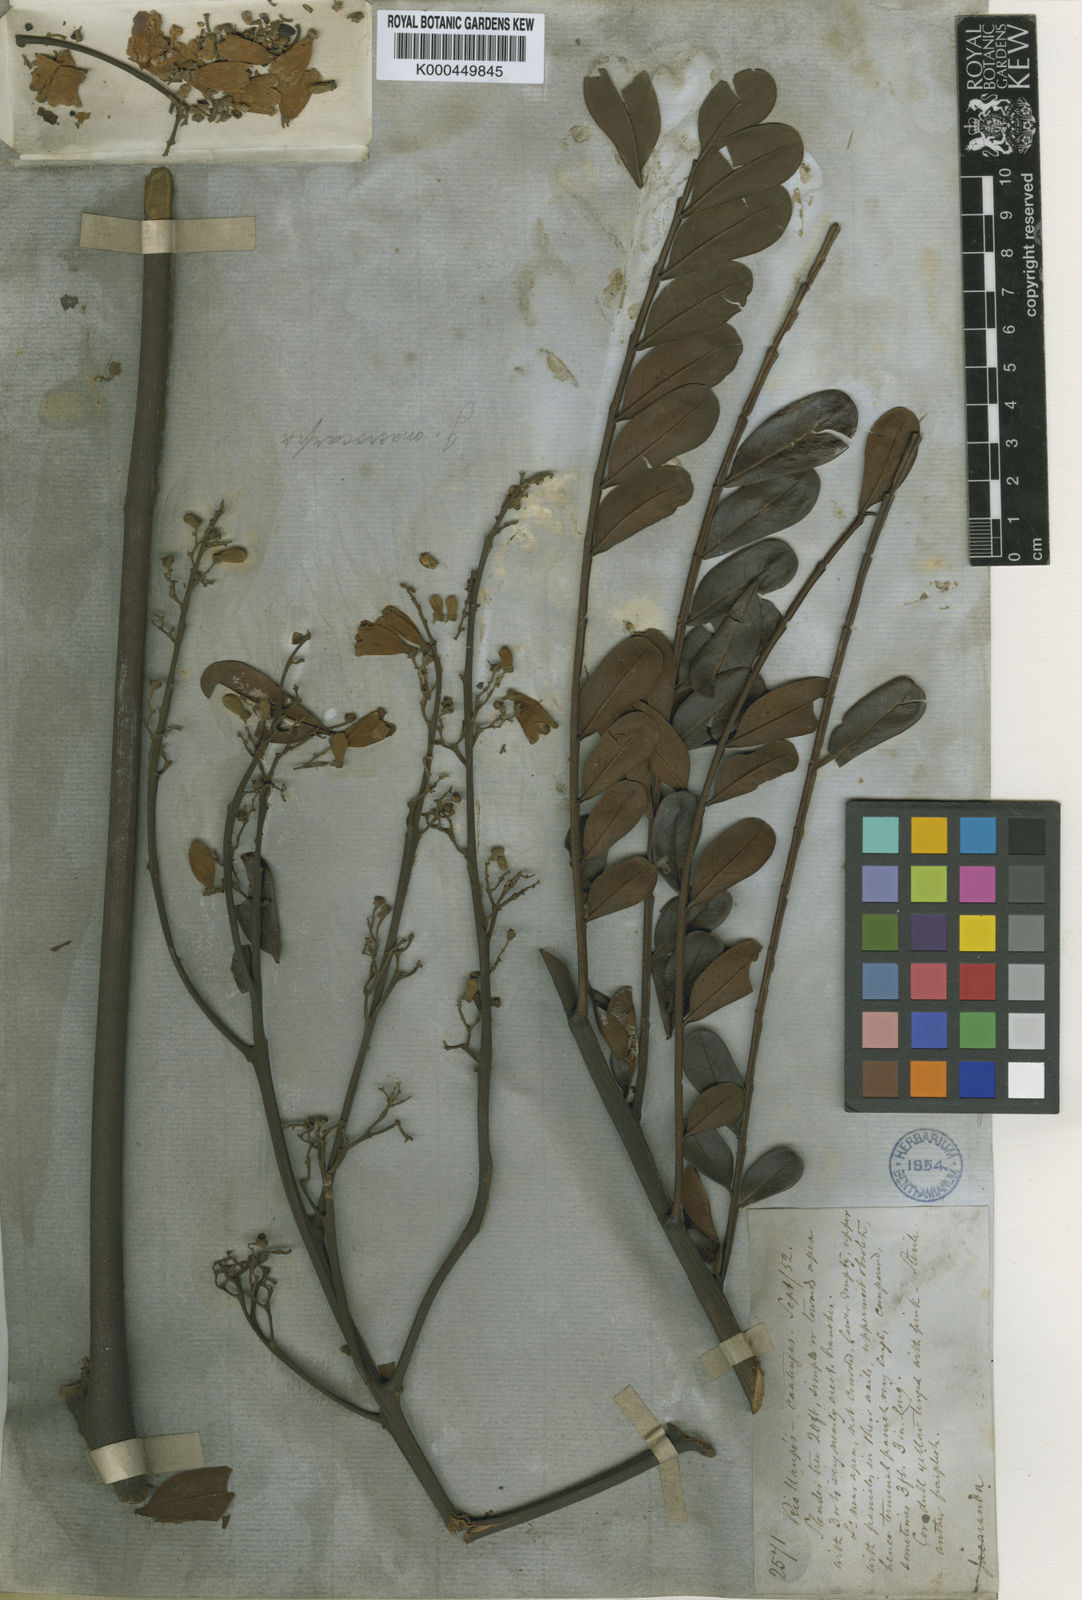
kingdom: Plantae
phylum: Tracheophyta
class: Magnoliopsida
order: Lamiales
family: Bignoniaceae
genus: Jacaranda
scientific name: Jacaranda macrocarpa
